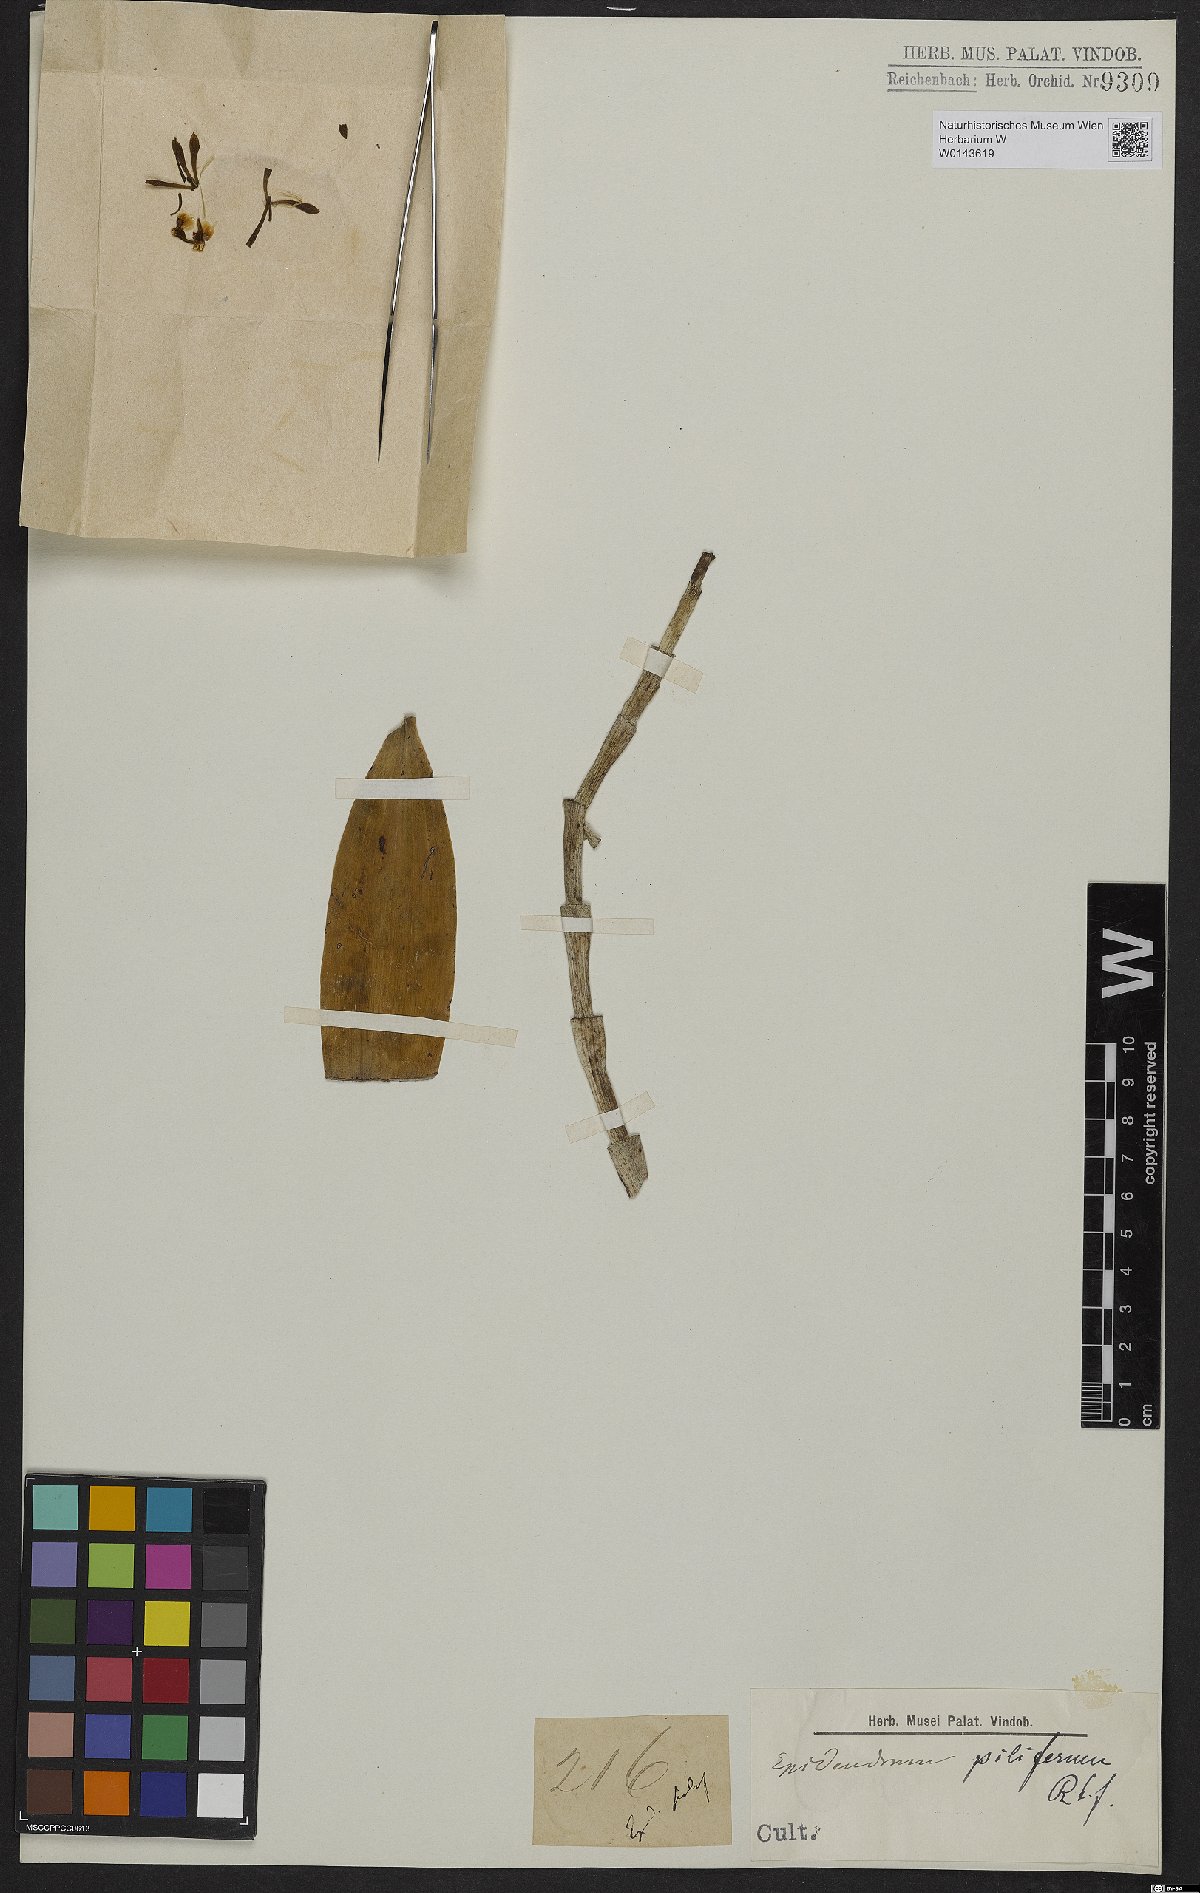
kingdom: Plantae
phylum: Tracheophyta
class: Liliopsida
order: Asparagales
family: Orchidaceae
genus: Epidendrum
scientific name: Epidendrum piliferum
